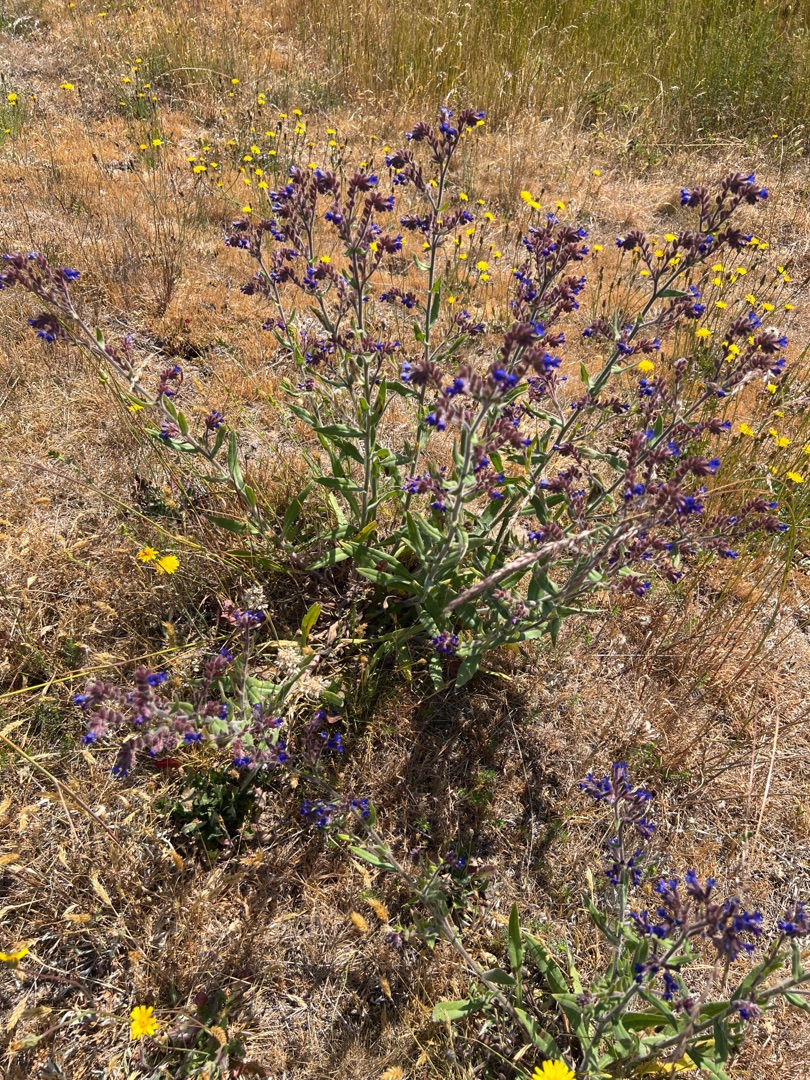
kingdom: Plantae
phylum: Tracheophyta
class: Magnoliopsida
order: Boraginales
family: Boraginaceae
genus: Anchusa
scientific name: Anchusa officinalis
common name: Læge-oksetunge
